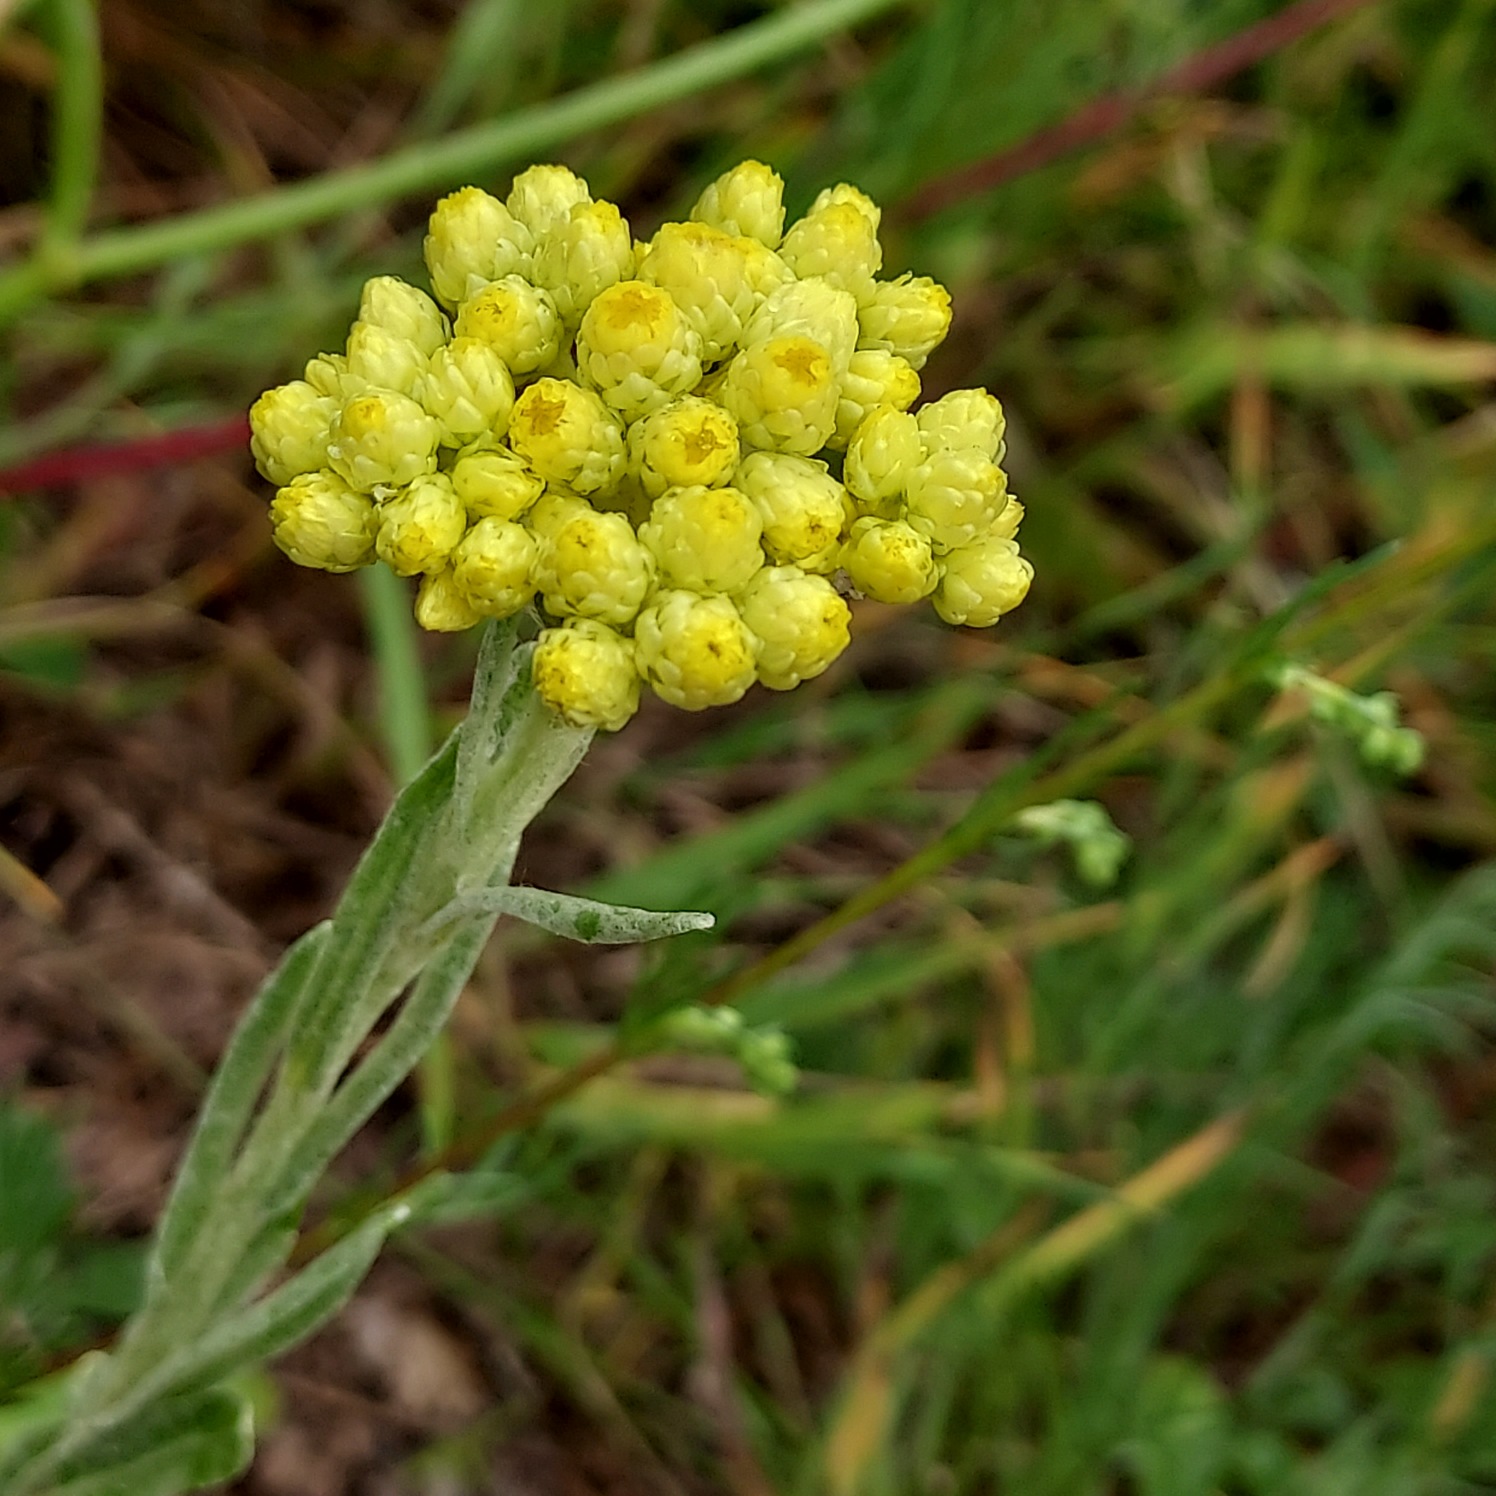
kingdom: Plantae
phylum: Tracheophyta
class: Magnoliopsida
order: Asterales
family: Asteraceae
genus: Helichrysum
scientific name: Helichrysum arenarium
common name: Gul evighedsblomst
